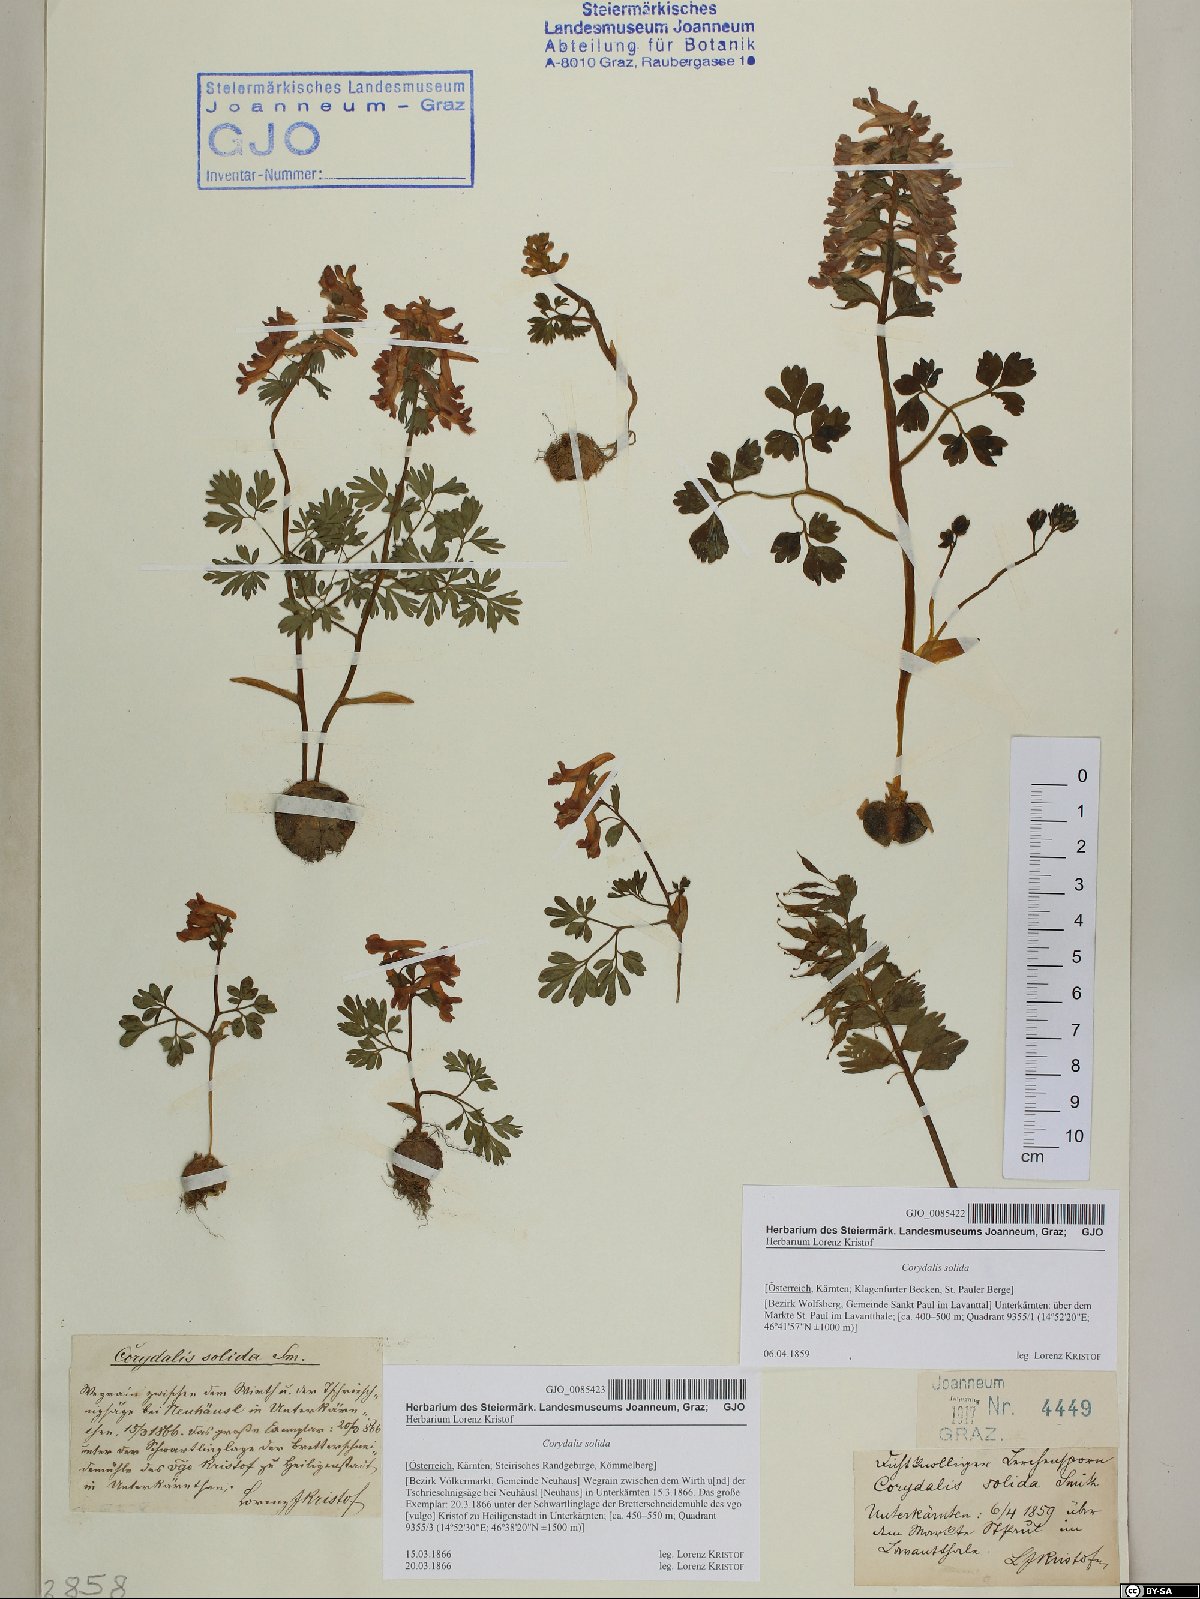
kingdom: Plantae
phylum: Tracheophyta
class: Magnoliopsida
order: Ranunculales
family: Papaveraceae
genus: Corydalis
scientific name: Corydalis solida
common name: Bird-in-a-bush
